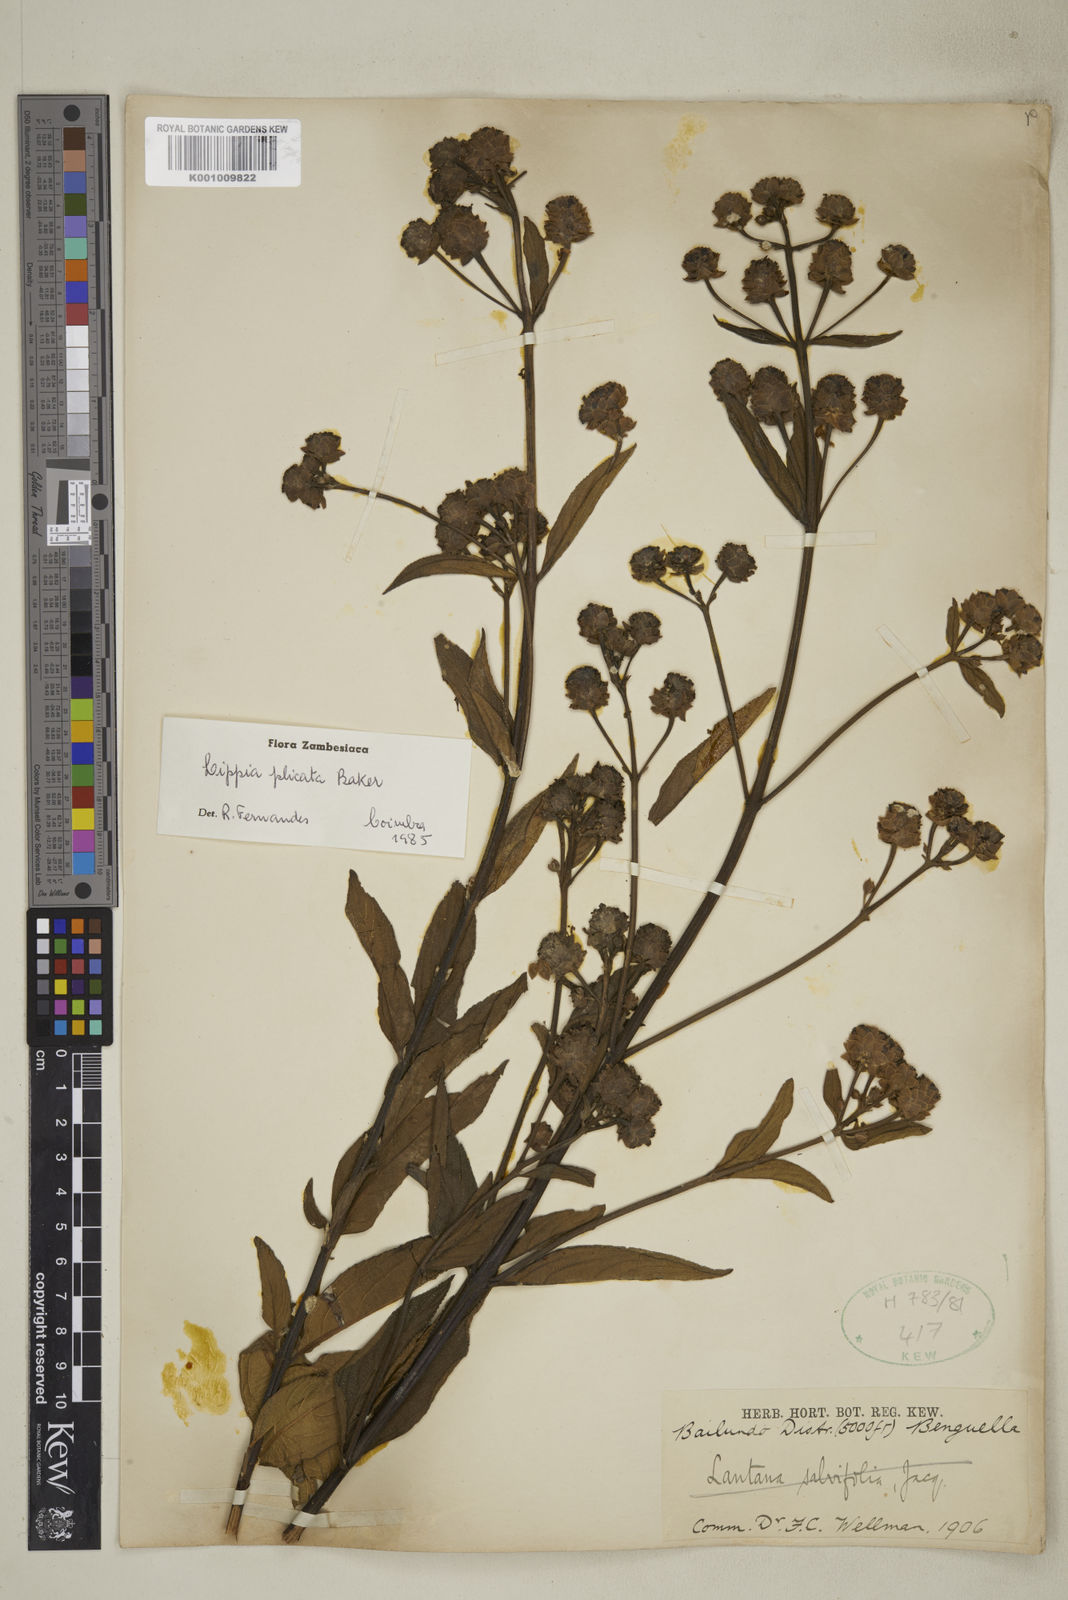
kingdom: Plantae
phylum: Tracheophyta
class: Magnoliopsida
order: Lamiales
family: Verbenaceae
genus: Lippia
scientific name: Lippia plicata
